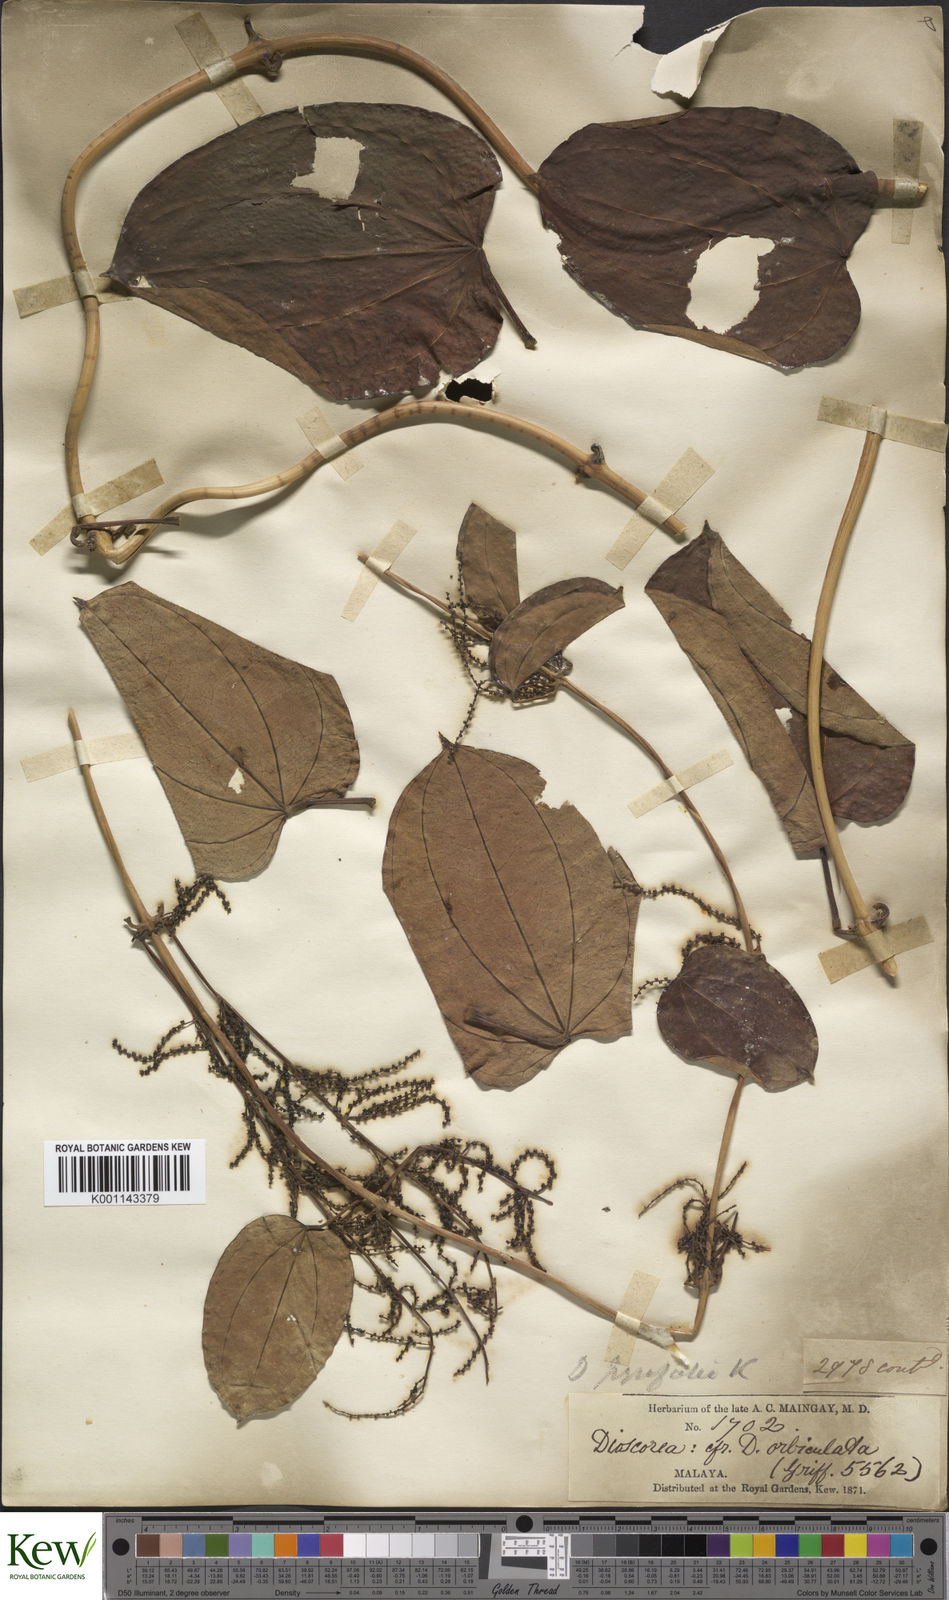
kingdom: Plantae
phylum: Tracheophyta
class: Liliopsida
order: Dioscoreales
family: Dioscoreaceae
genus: Dioscorea
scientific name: Dioscorea pyrifolia
